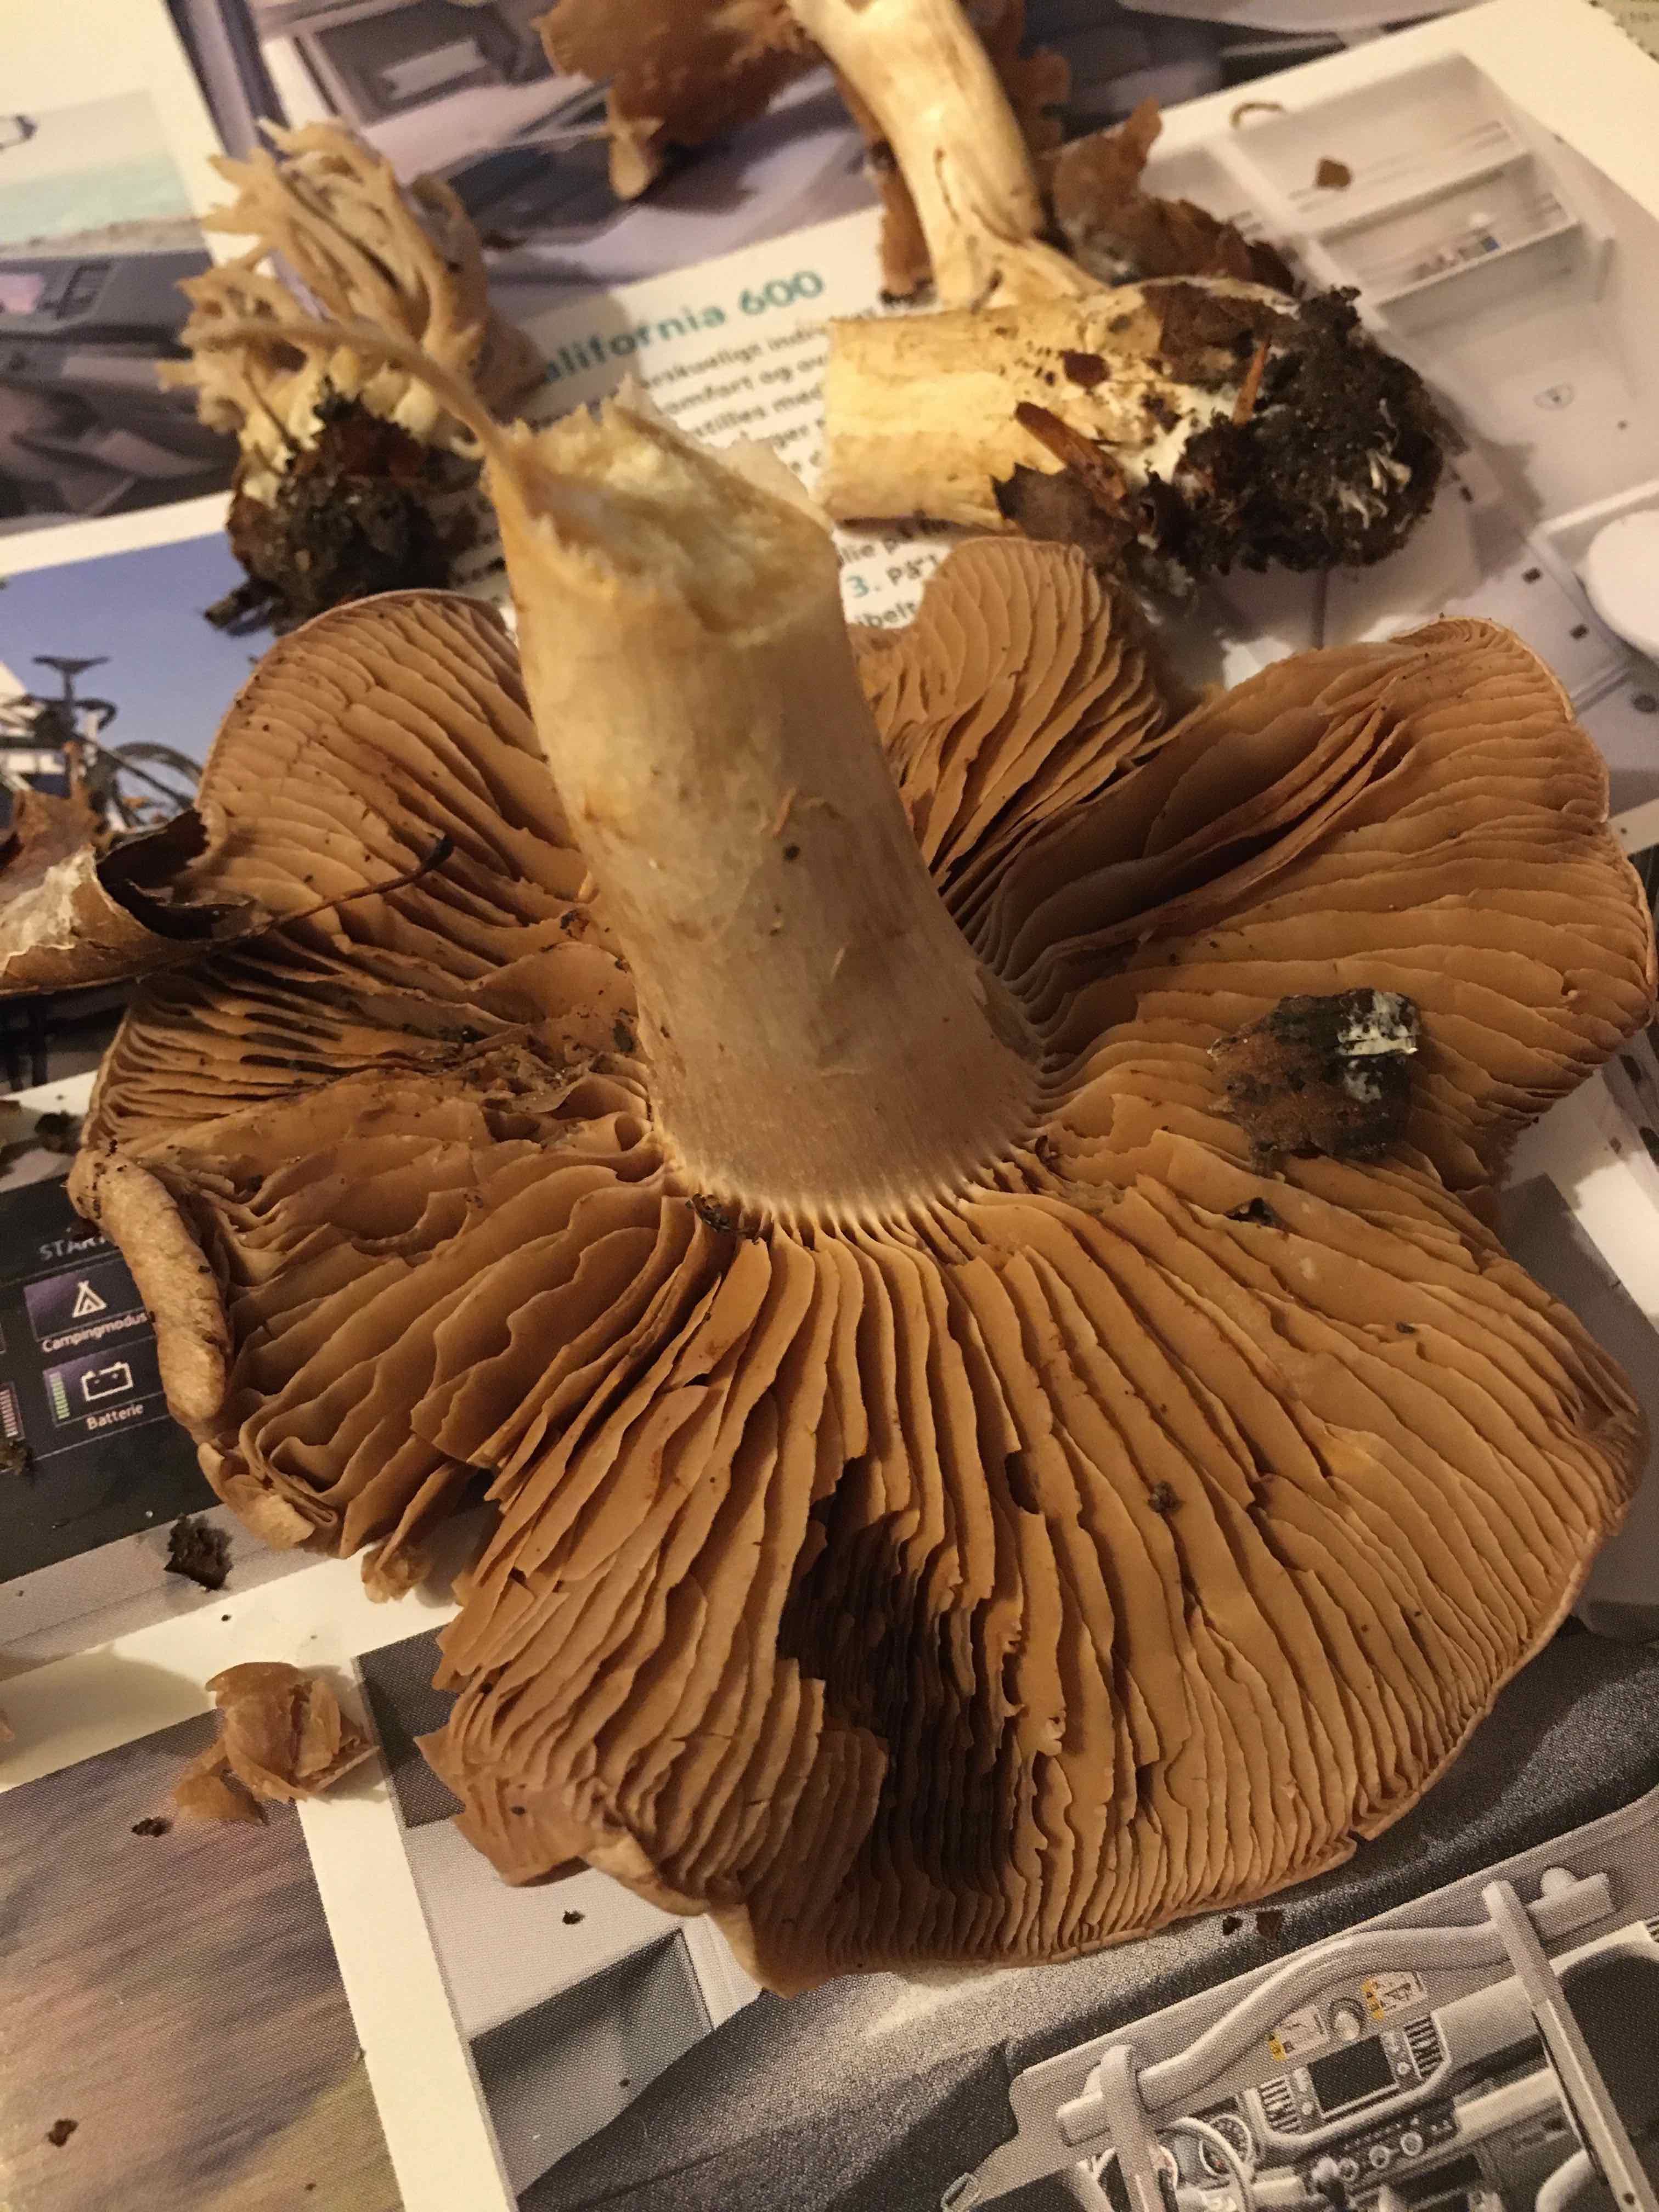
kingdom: Fungi
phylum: Basidiomycota
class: Agaricomycetes
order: Agaricales
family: Cortinariaceae
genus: Cortinarius
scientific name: Cortinarius
